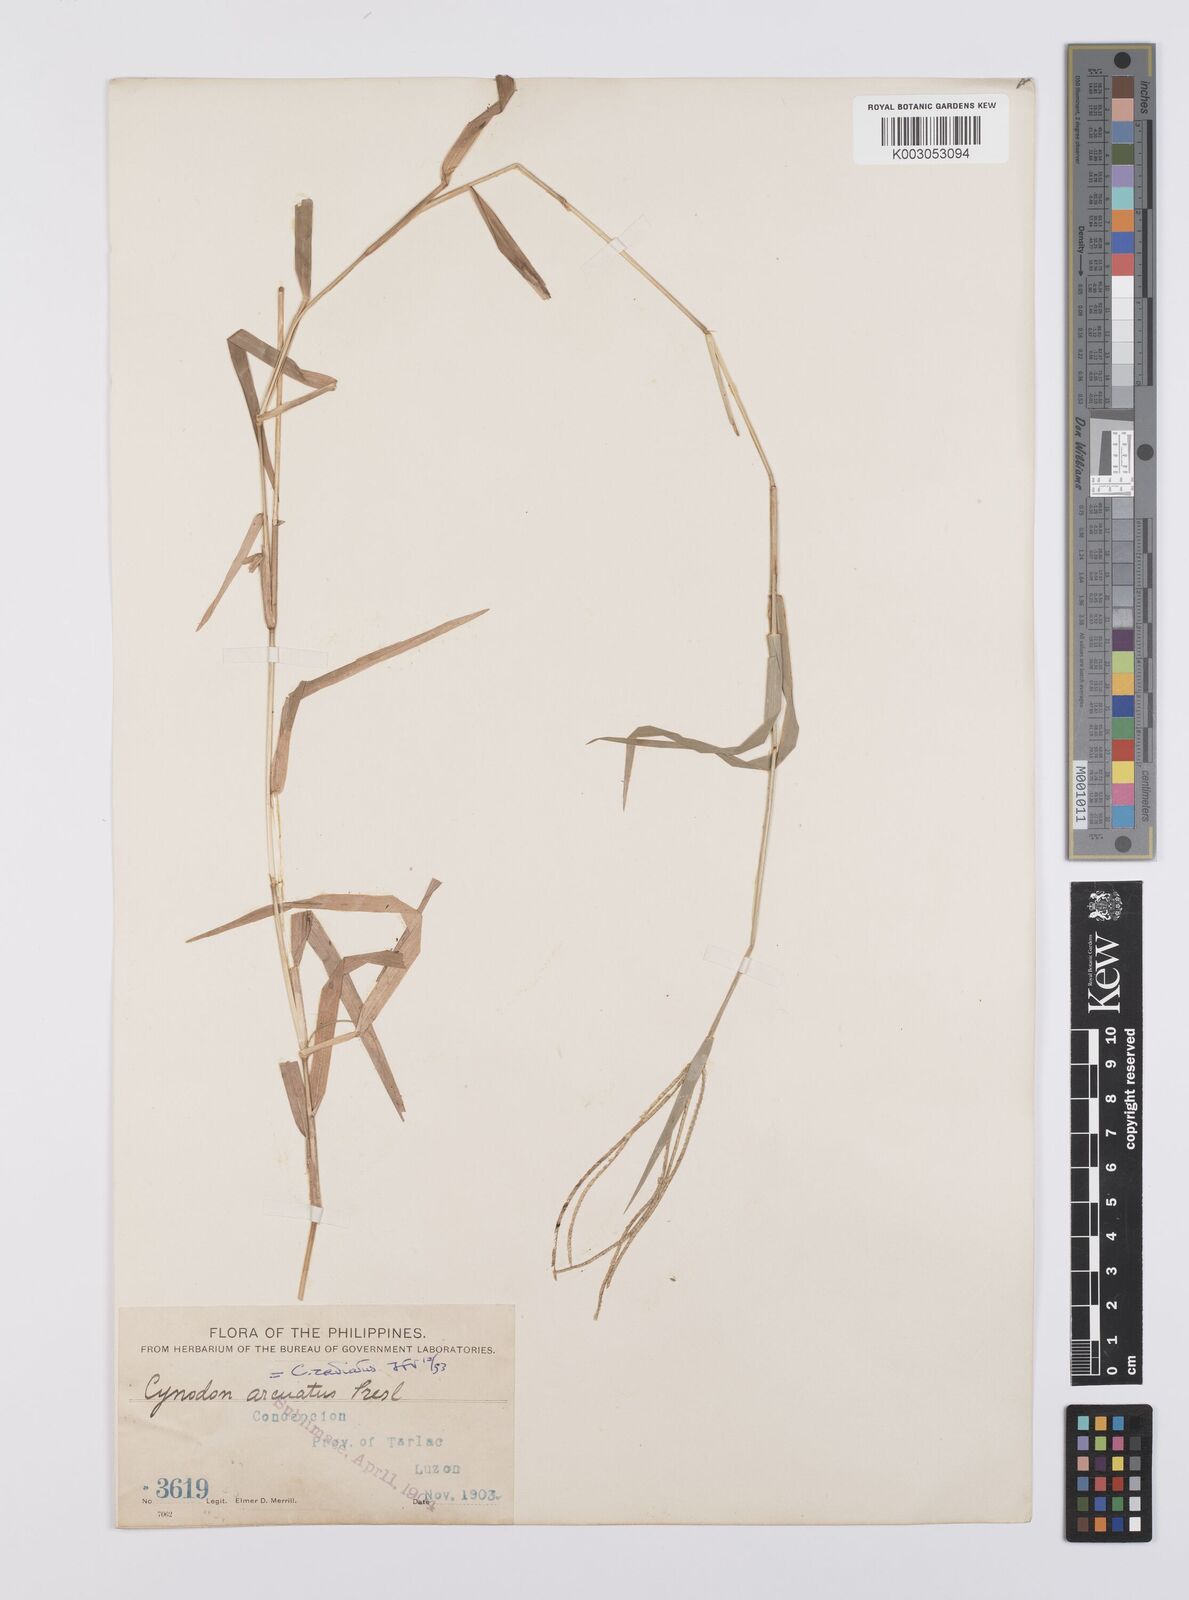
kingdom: Plantae
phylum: Tracheophyta
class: Liliopsida
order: Poales
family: Poaceae
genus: Cynodon
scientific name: Cynodon radiatus
